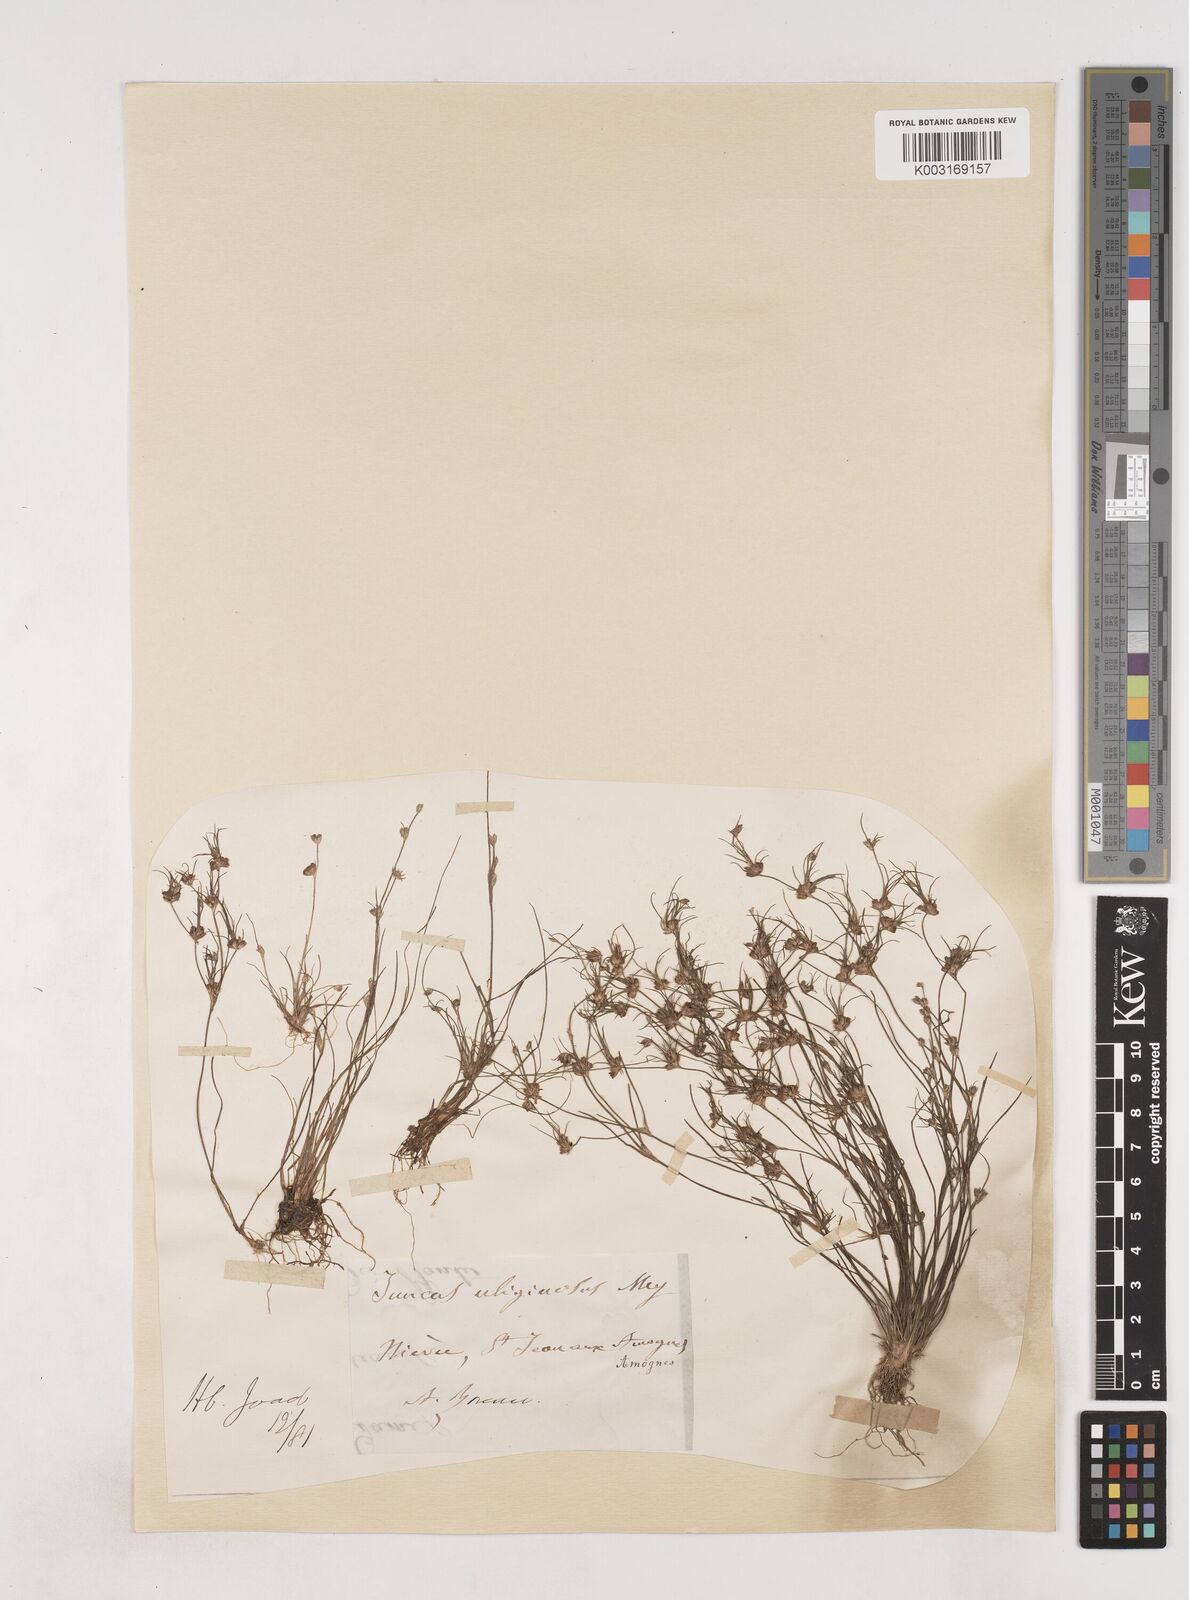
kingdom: Plantae
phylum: Tracheophyta
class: Liliopsida
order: Poales
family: Juncaceae
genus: Juncus
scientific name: Juncus bulbosus
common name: Bulbous rush
